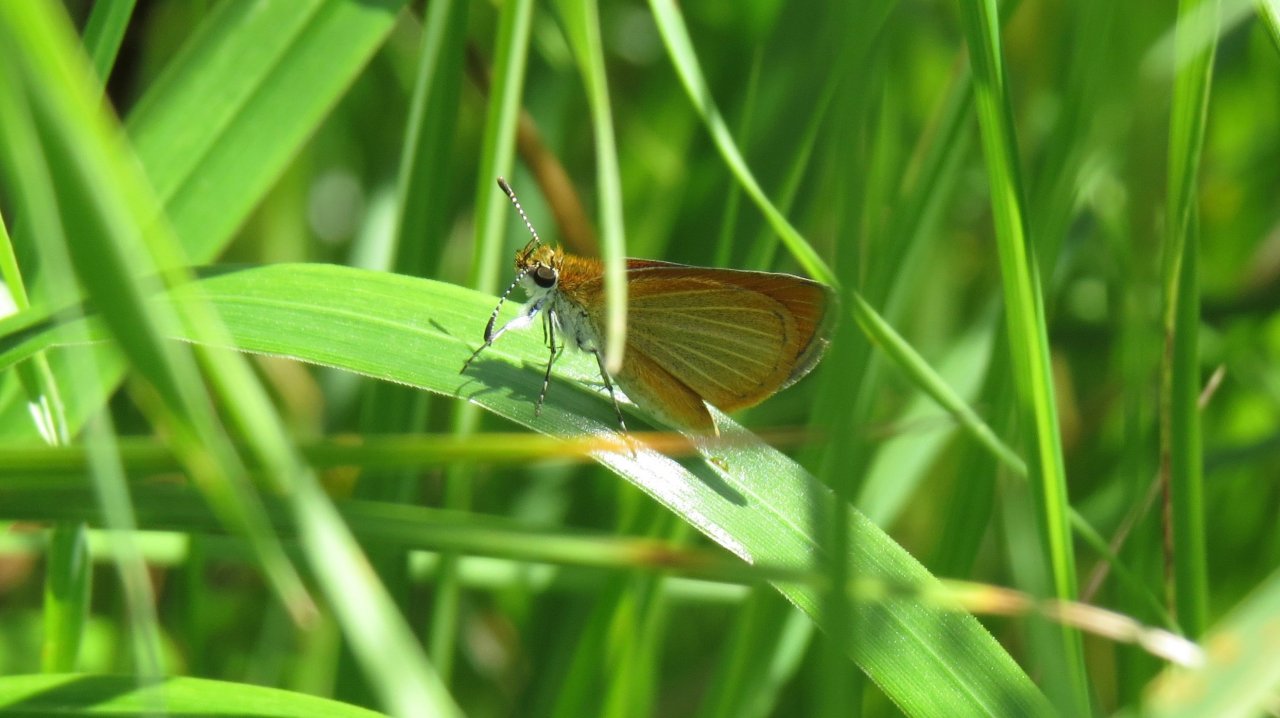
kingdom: Animalia
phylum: Arthropoda
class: Insecta
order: Lepidoptera
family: Hesperiidae
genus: Ancyloxypha
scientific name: Ancyloxypha numitor
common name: Least Skipper
